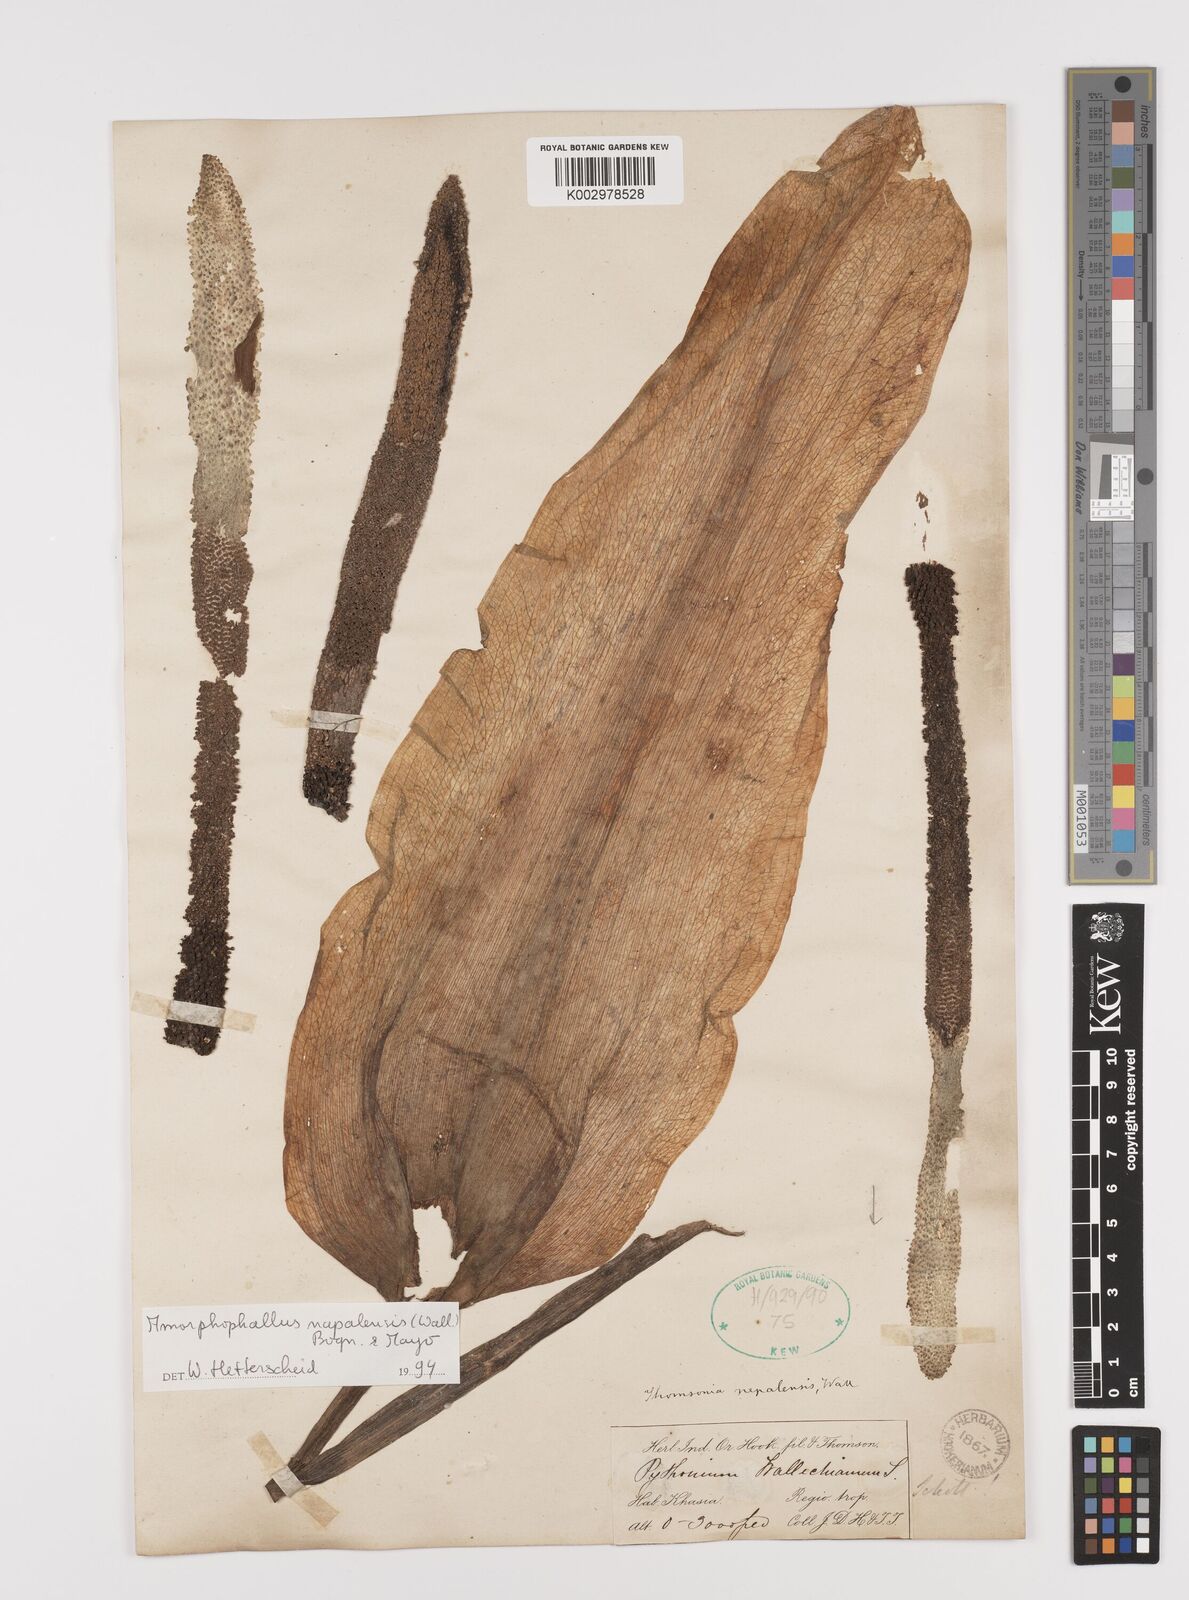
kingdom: Plantae
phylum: Tracheophyta
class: Liliopsida
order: Alismatales
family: Araceae
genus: Amorphophallus
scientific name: Amorphophallus napalensis
